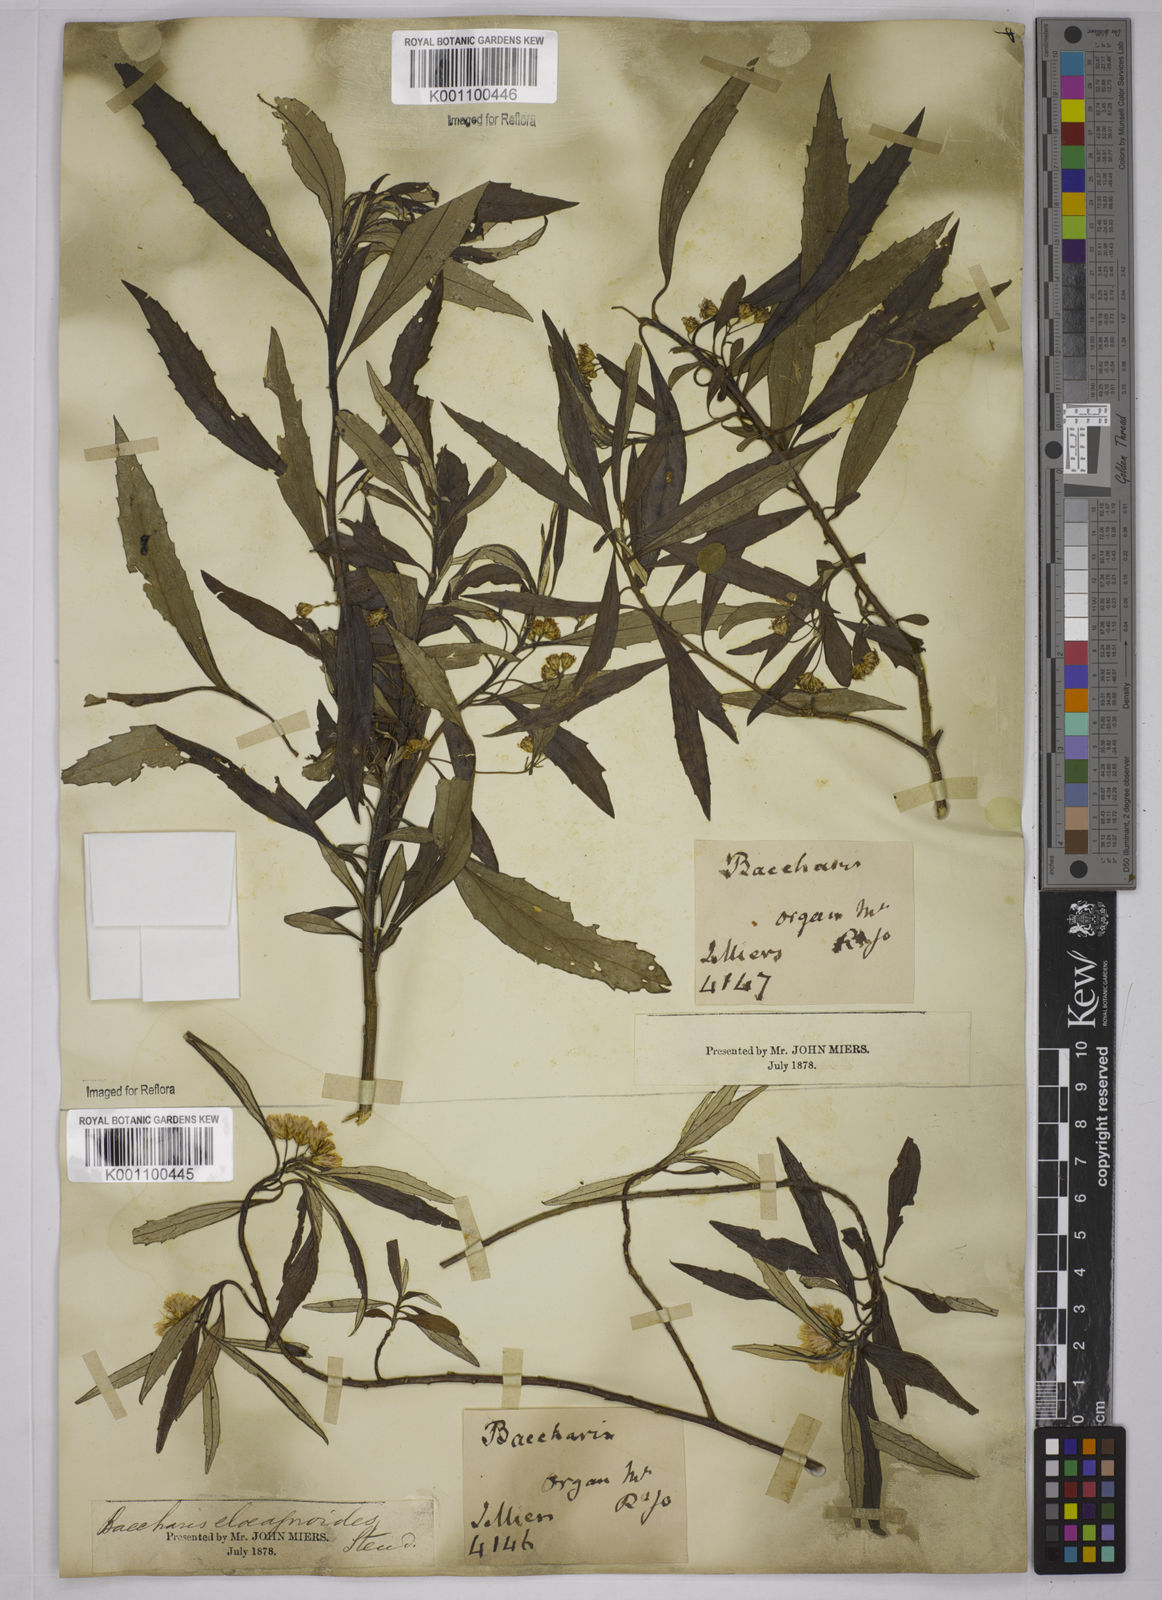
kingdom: Plantae
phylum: Tracheophyta
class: Magnoliopsida
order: Asterales
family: Asteraceae
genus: Baccharis
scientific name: Baccharis
